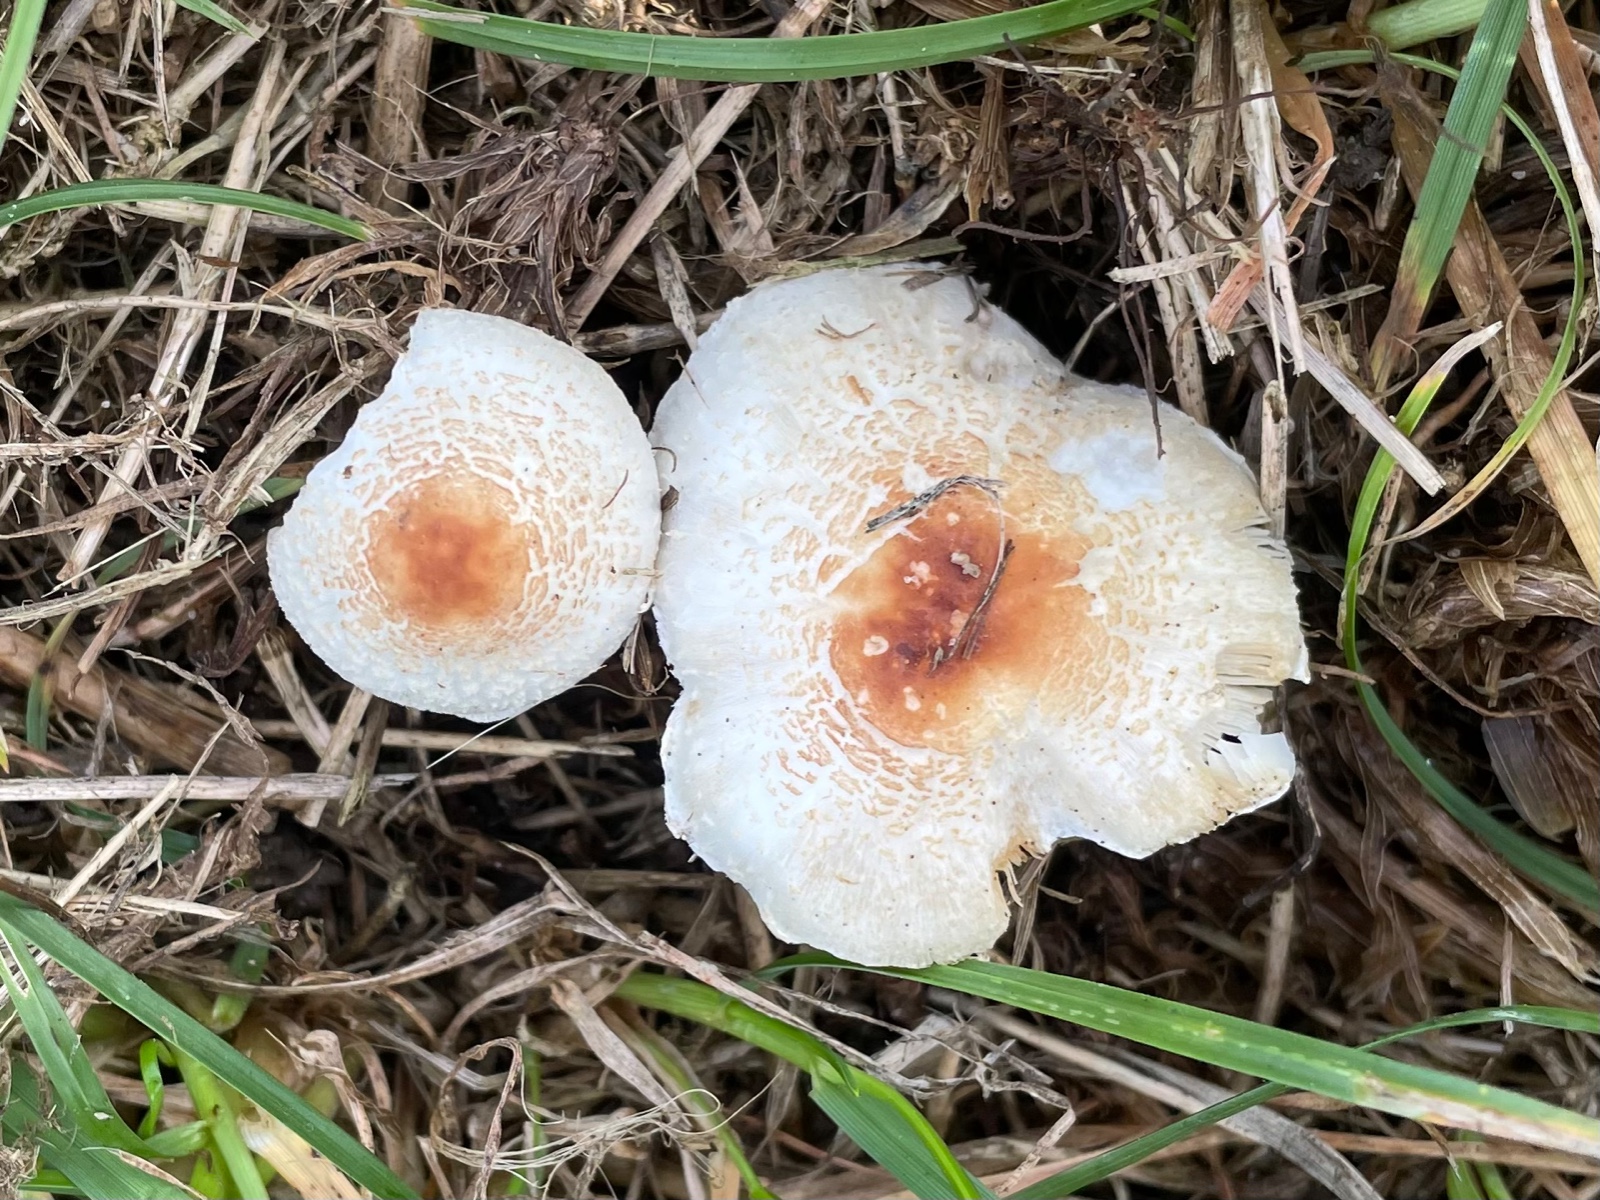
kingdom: Fungi
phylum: Basidiomycota
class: Agaricomycetes
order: Agaricales
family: Agaricaceae
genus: Lepiota
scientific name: Lepiota cristata
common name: stinkende parasolhat
